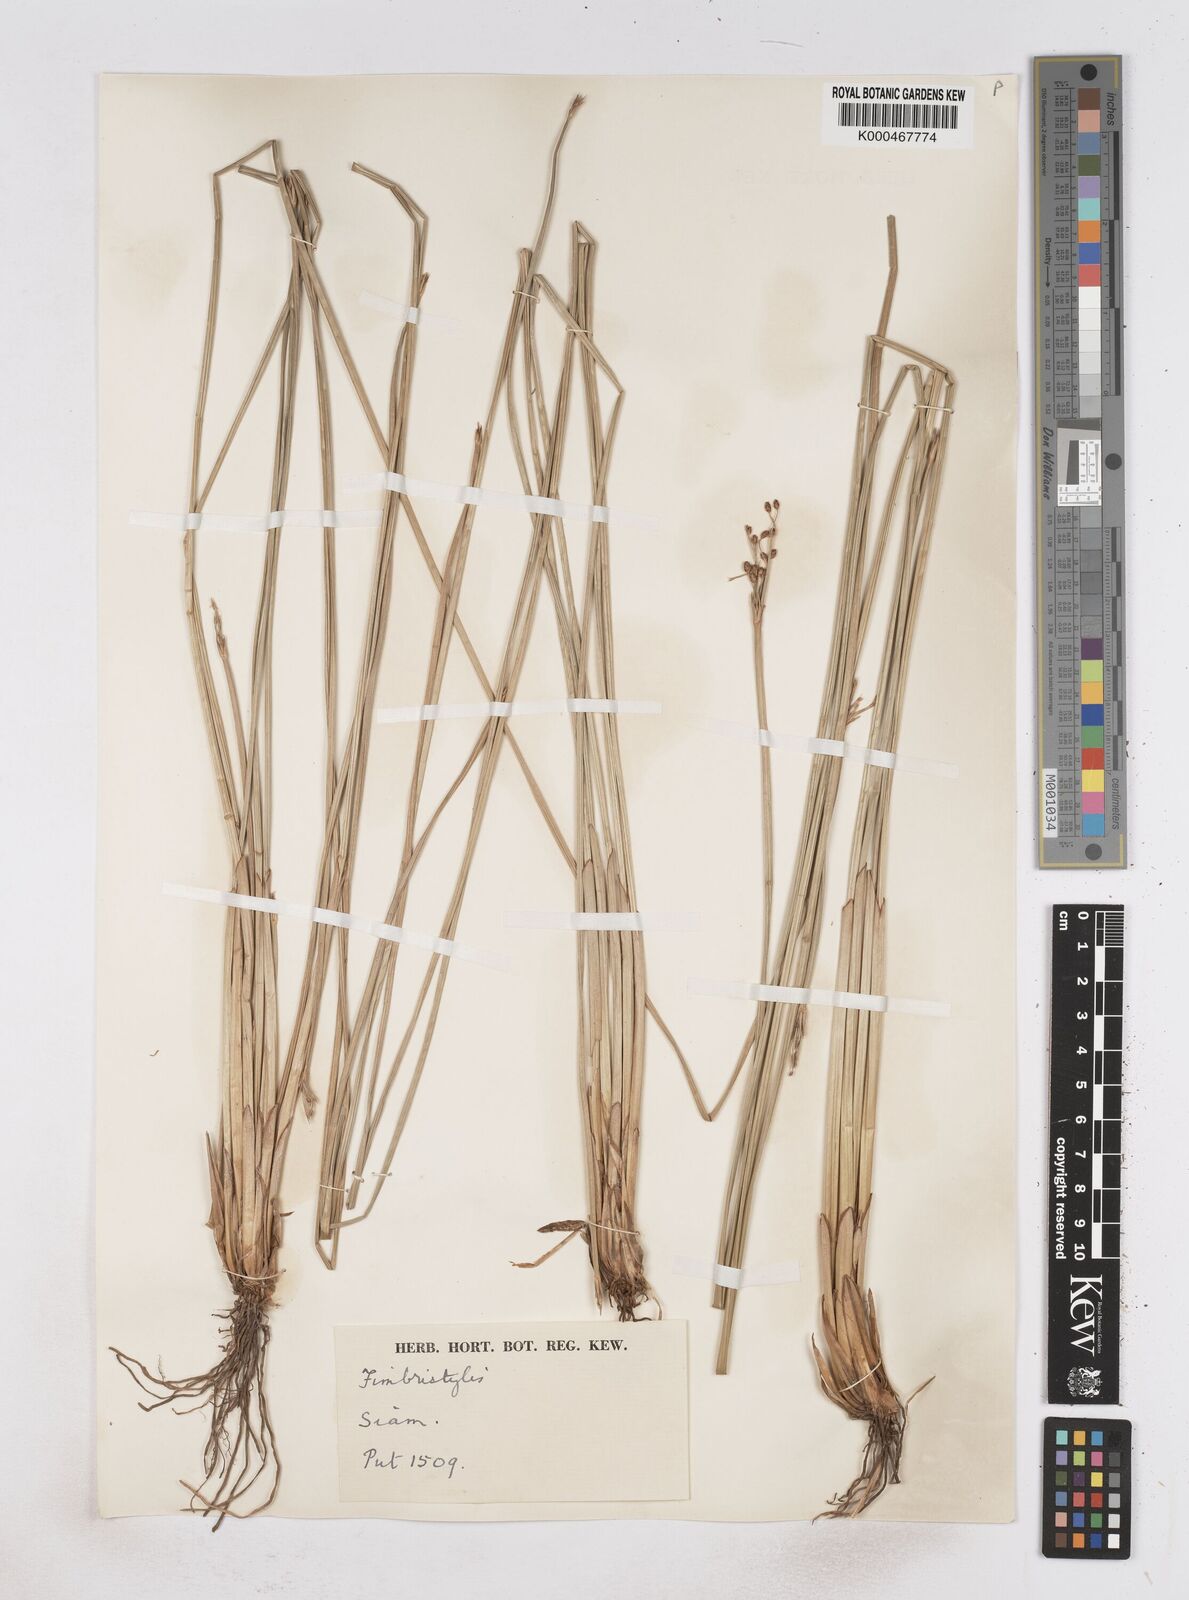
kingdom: Plantae
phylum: Tracheophyta
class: Liliopsida
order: Poales
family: Cyperaceae
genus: Fimbristylis
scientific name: Fimbristylis umbellaris
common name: Globular fimbristylis
